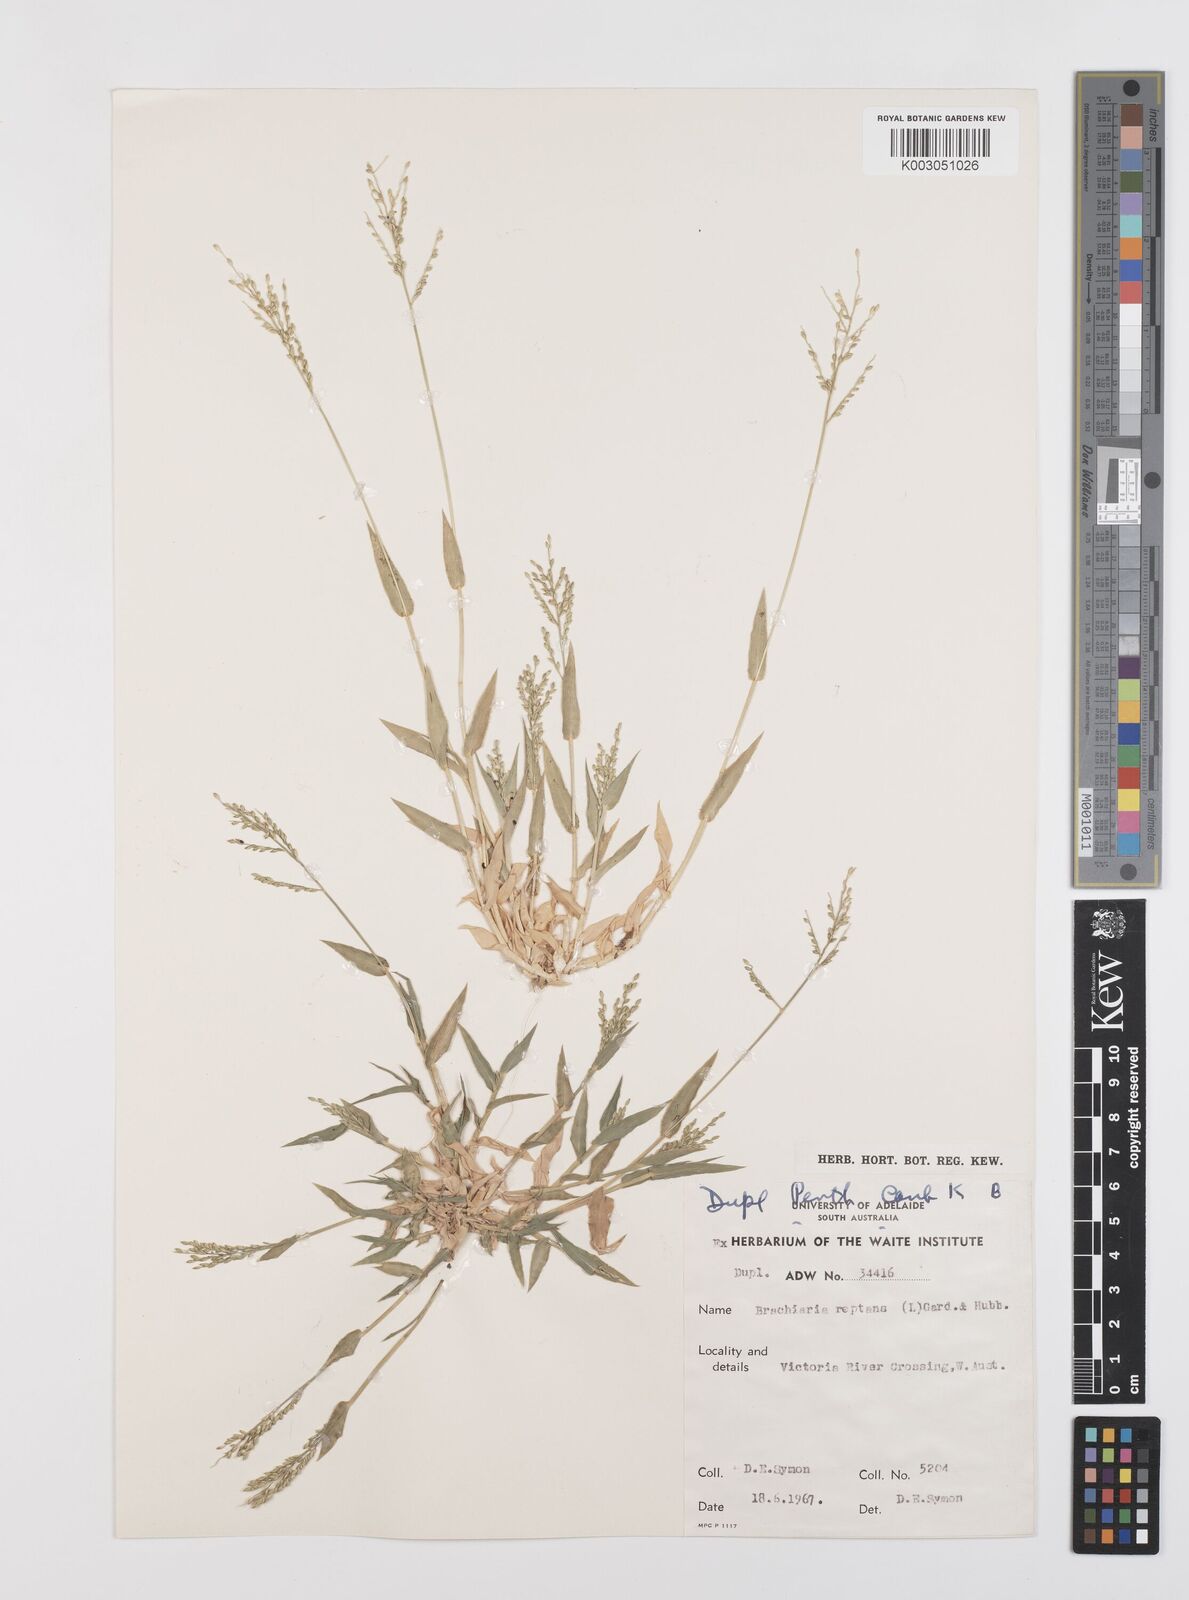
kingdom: Plantae
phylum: Tracheophyta
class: Liliopsida
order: Poales
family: Poaceae
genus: Urochloa
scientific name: Urochloa reptans
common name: Sprawling signalgrass
